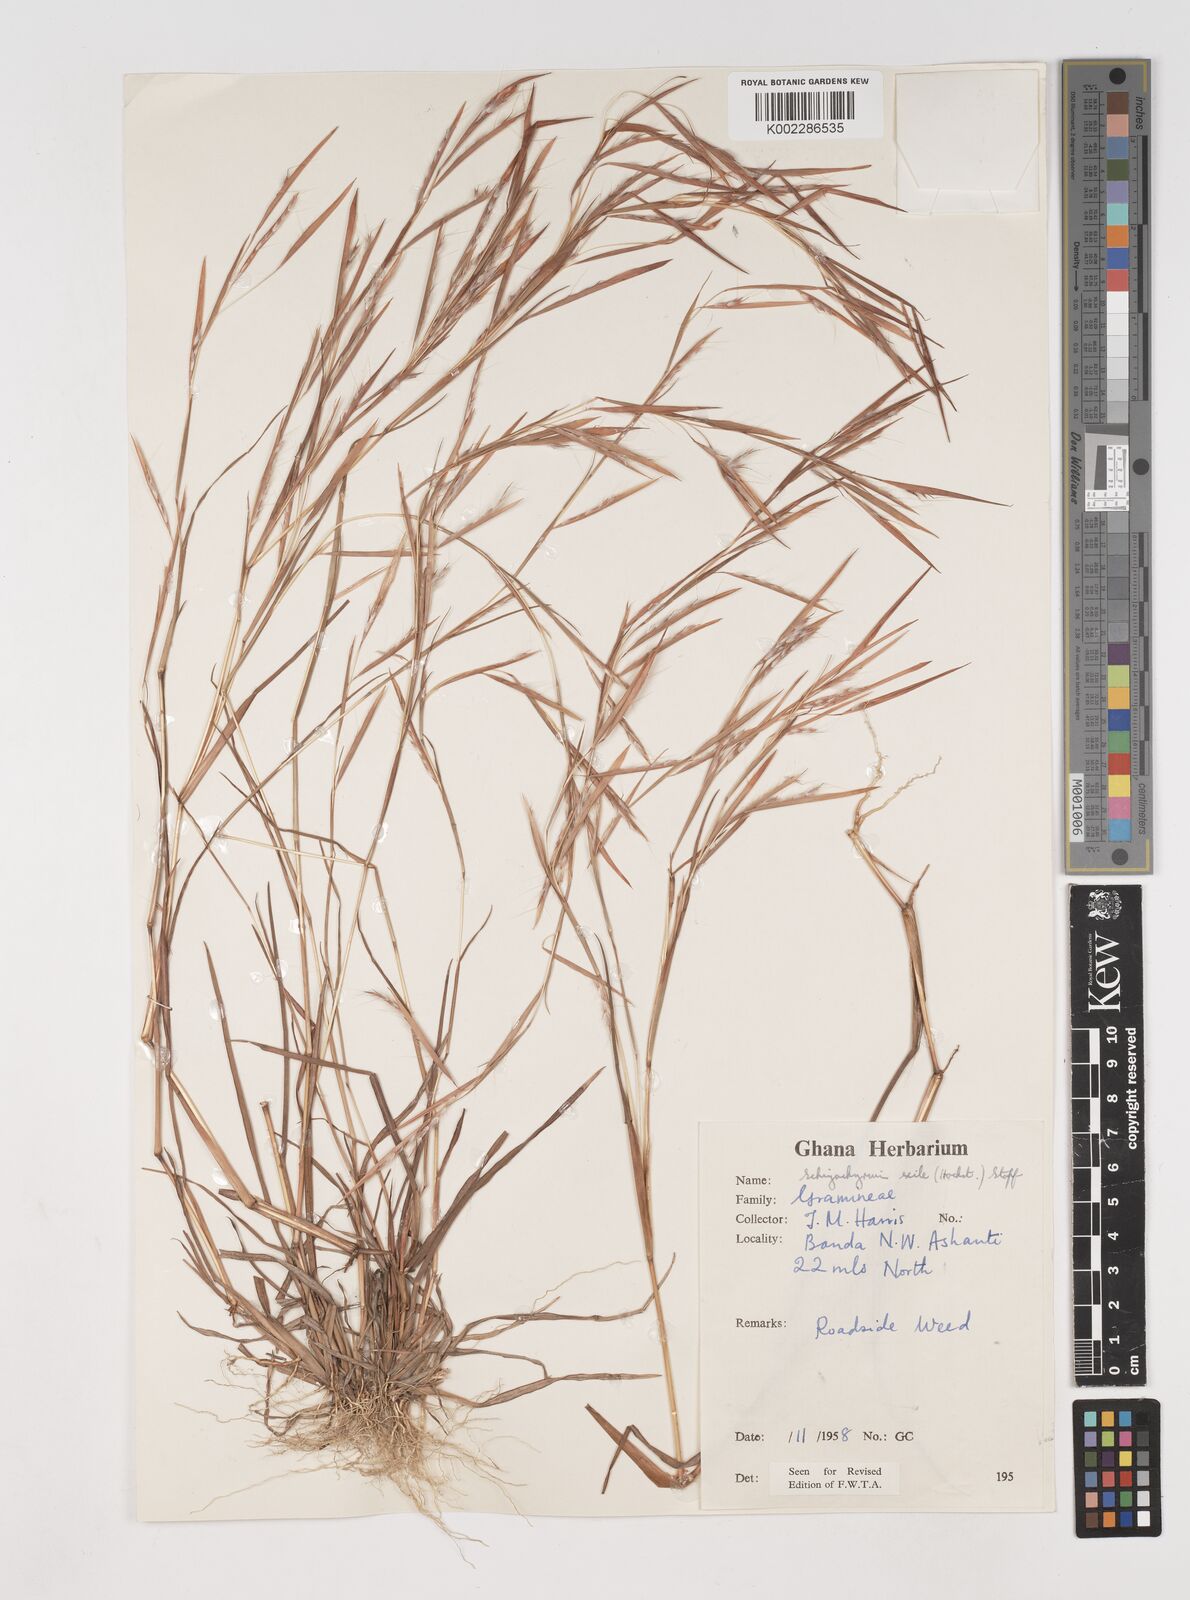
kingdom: Plantae
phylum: Tracheophyta
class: Liliopsida
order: Poales
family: Poaceae
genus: Schizachyrium
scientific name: Schizachyrium exile
